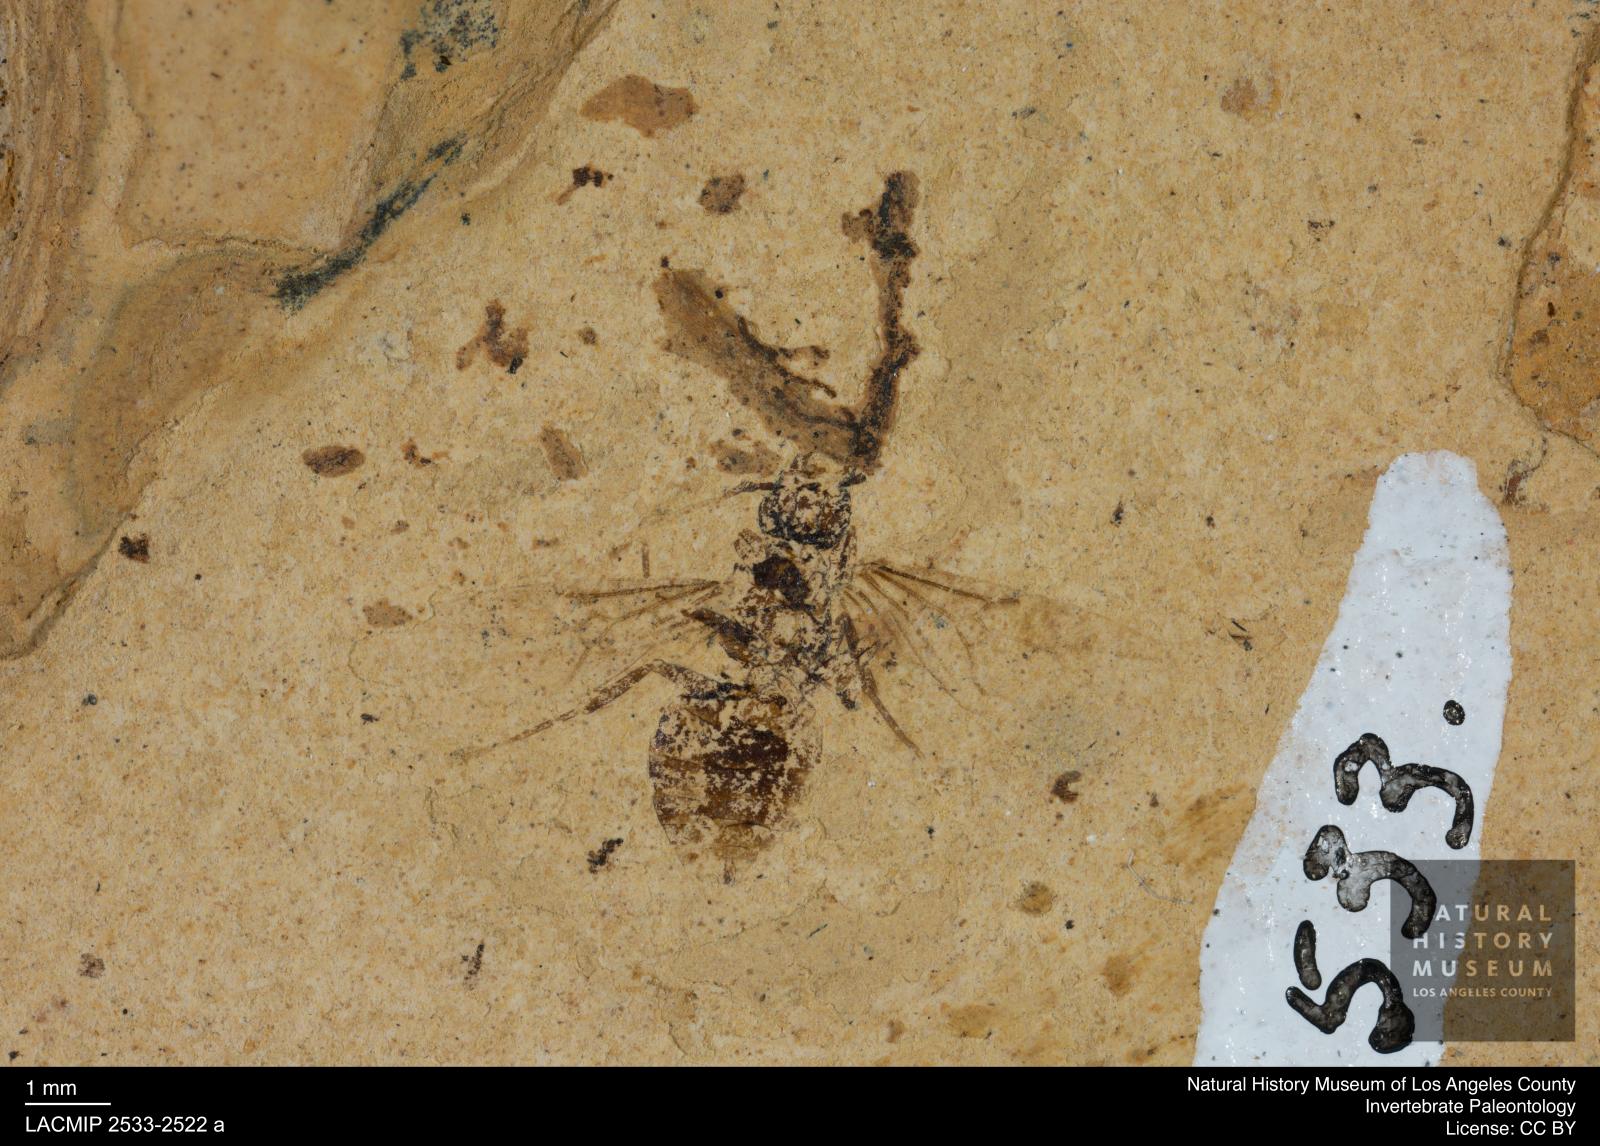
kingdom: Animalia
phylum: Arthropoda
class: Insecta
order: Hymenoptera
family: Formicidae
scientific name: Formicidae
